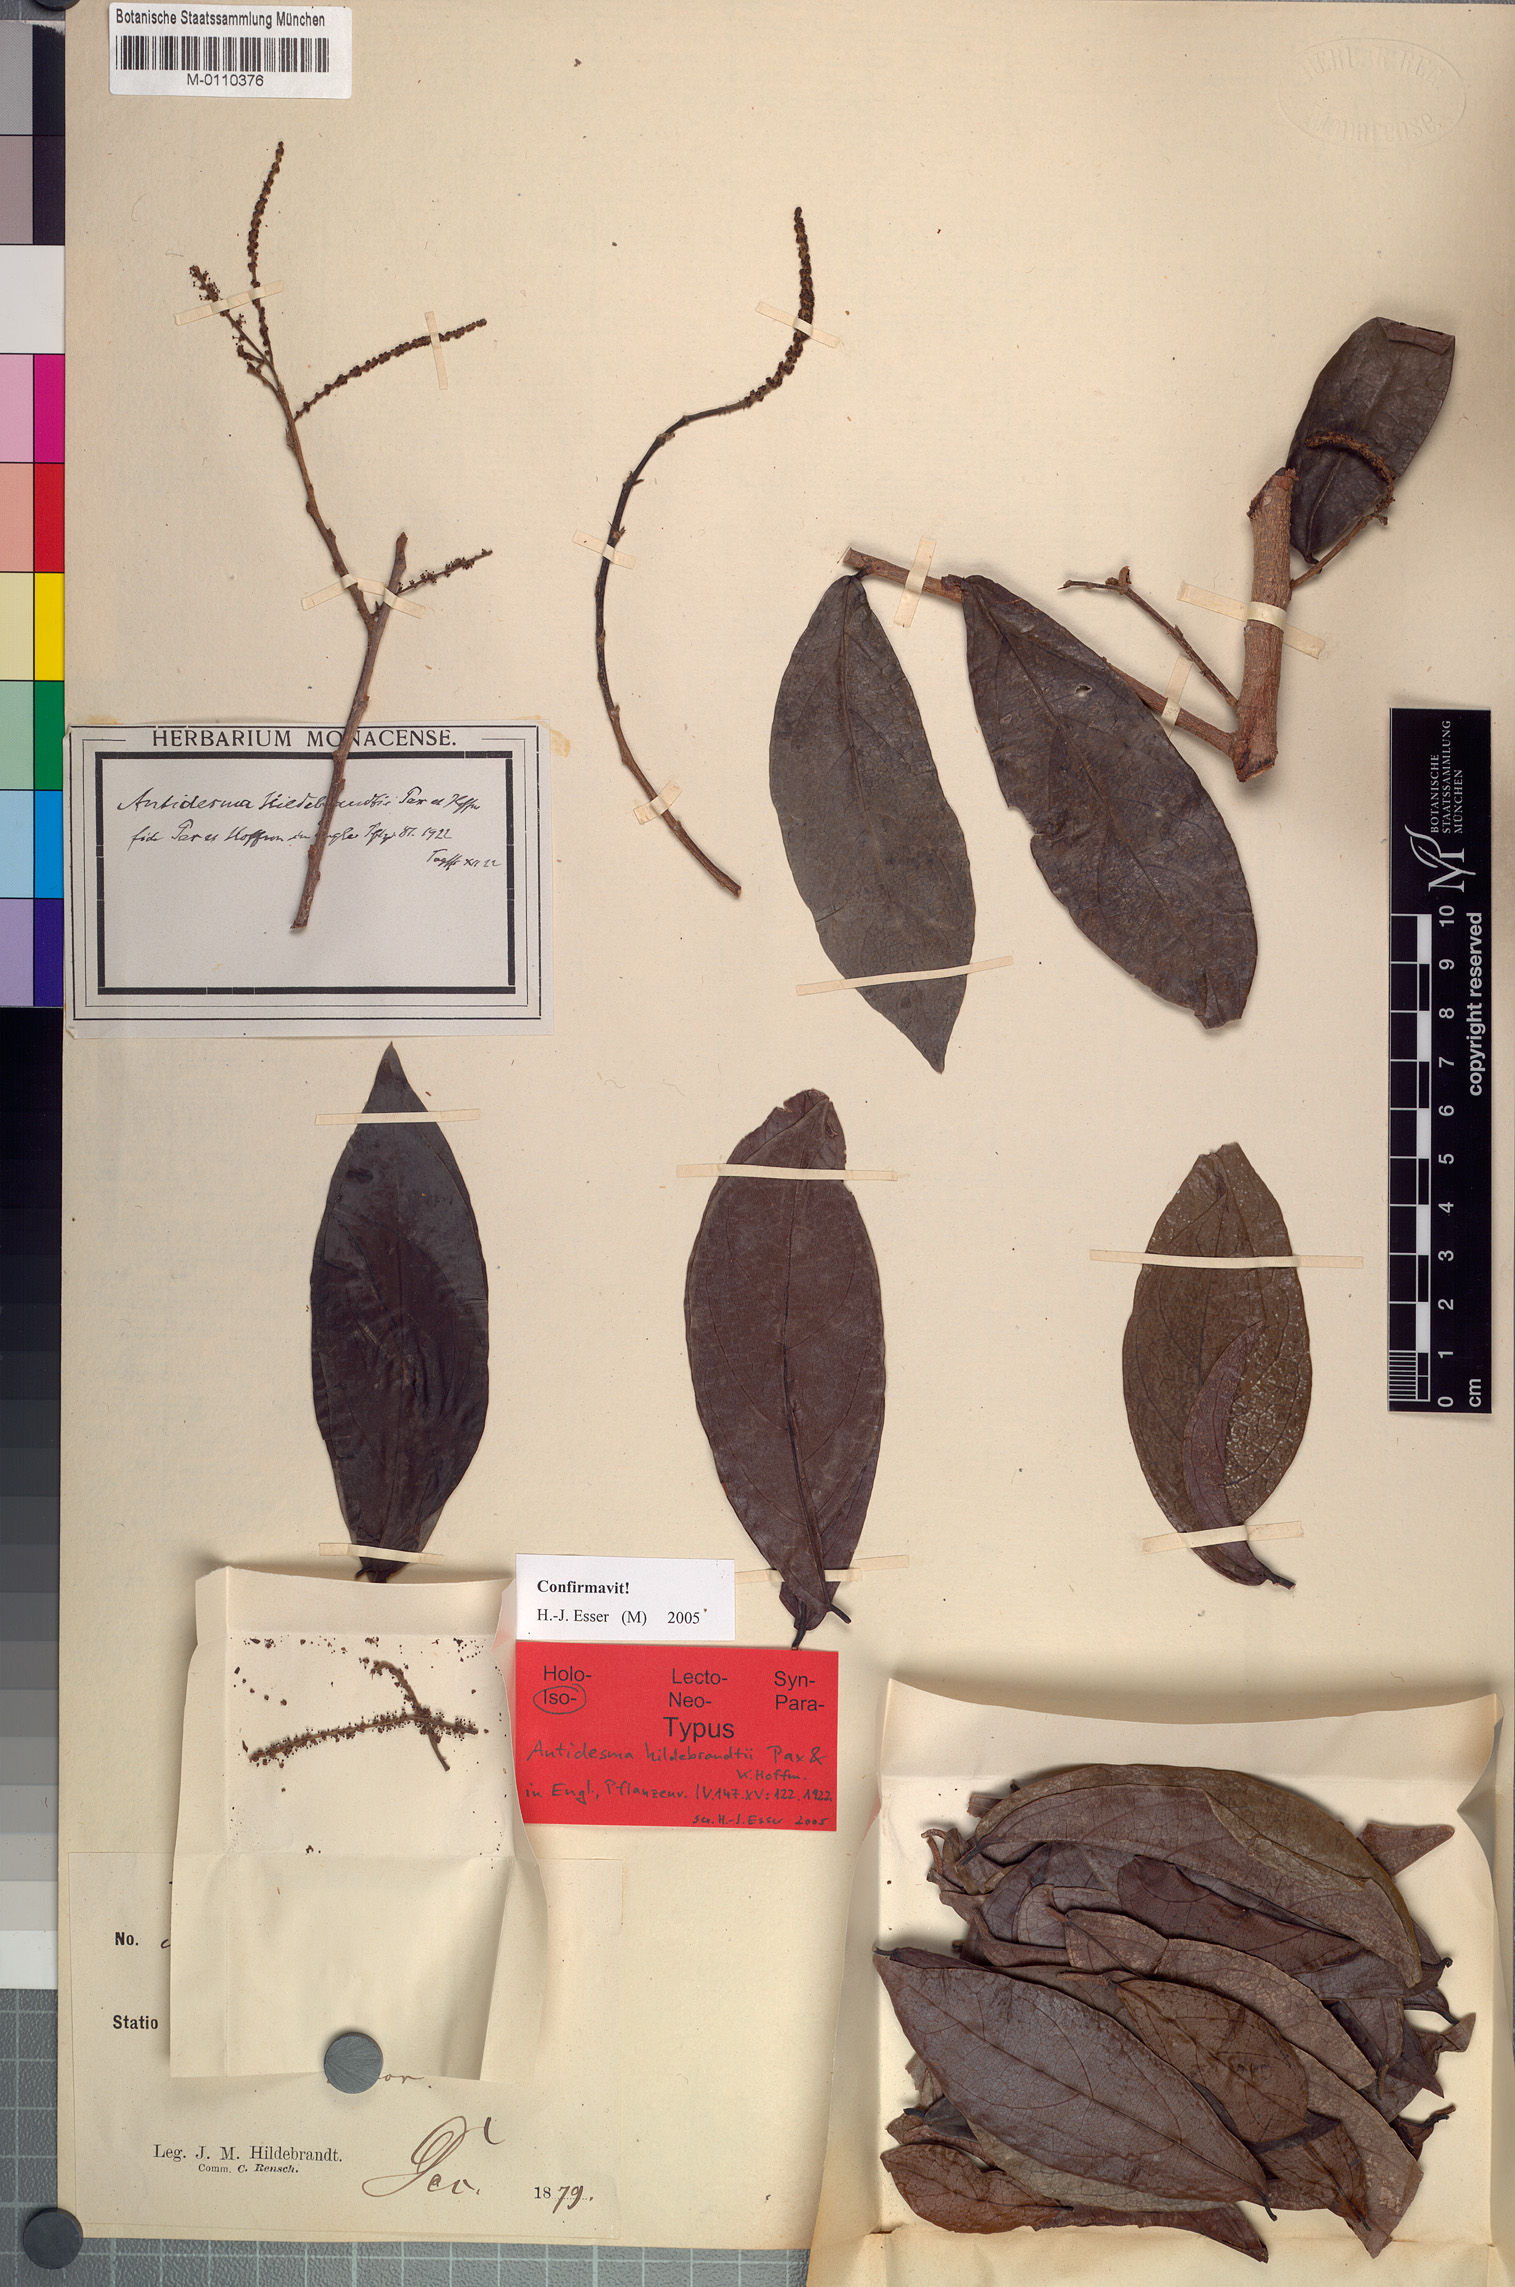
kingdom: Plantae
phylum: Tracheophyta
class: Magnoliopsida
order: Malpighiales
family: Phyllanthaceae
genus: Antidesma
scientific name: Antidesma madagascariense
